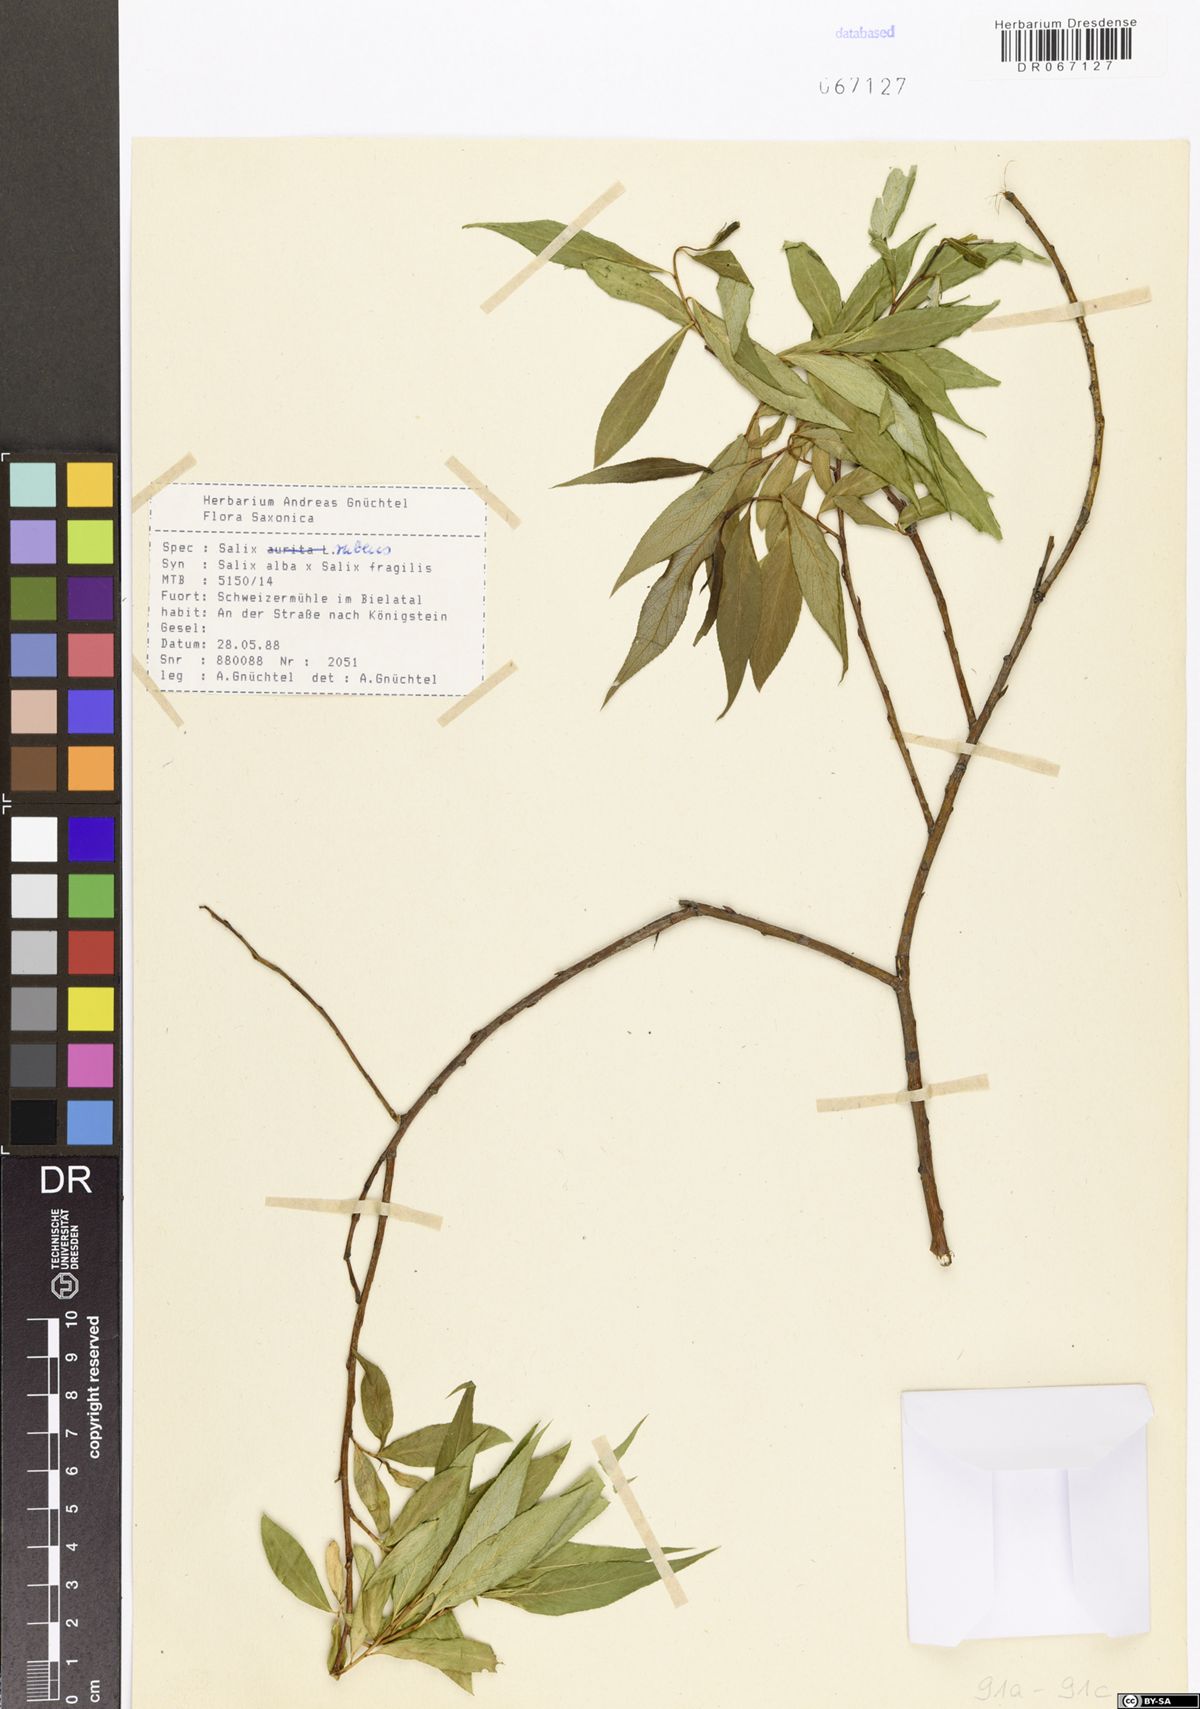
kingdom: Plantae
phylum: Tracheophyta
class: Magnoliopsida
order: Malpighiales
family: Salicaceae
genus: Salix
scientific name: Salix rubens
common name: Hybrid crack willow
